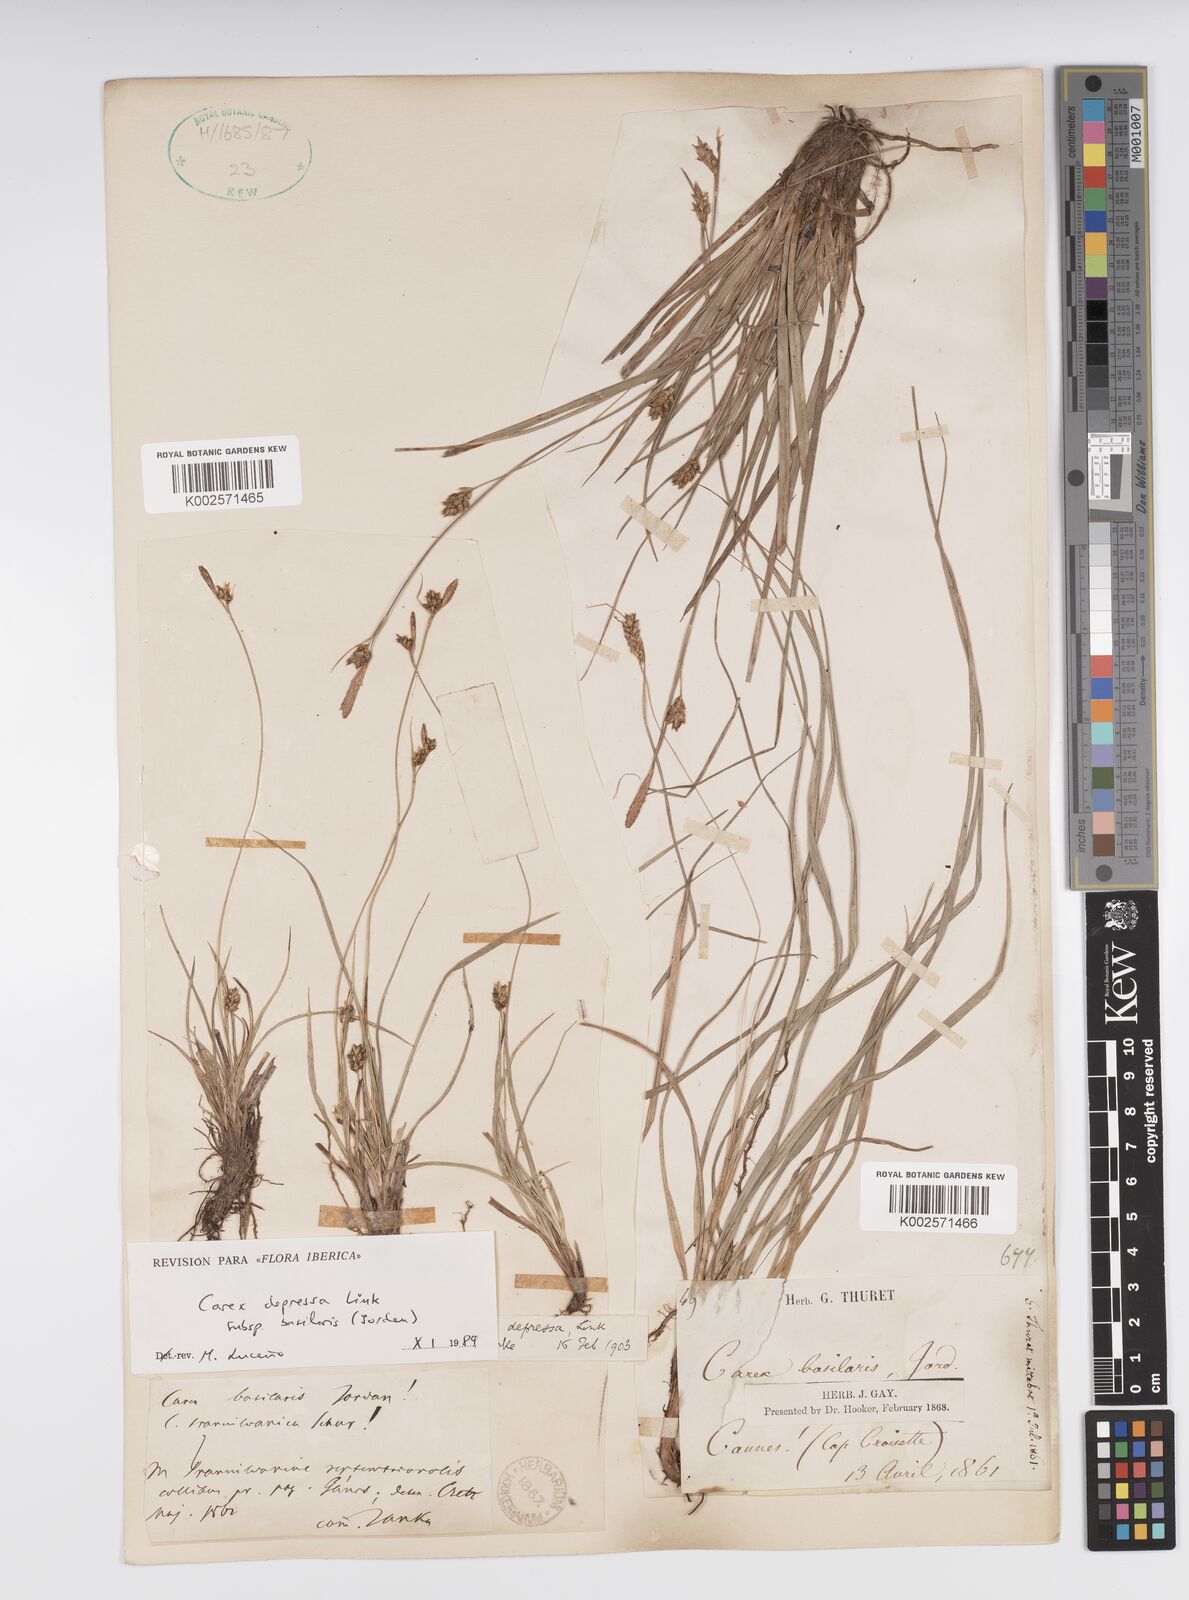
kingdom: Plantae
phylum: Tracheophyta
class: Liliopsida
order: Poales
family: Cyperaceae
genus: Carex
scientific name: Carex depressa
